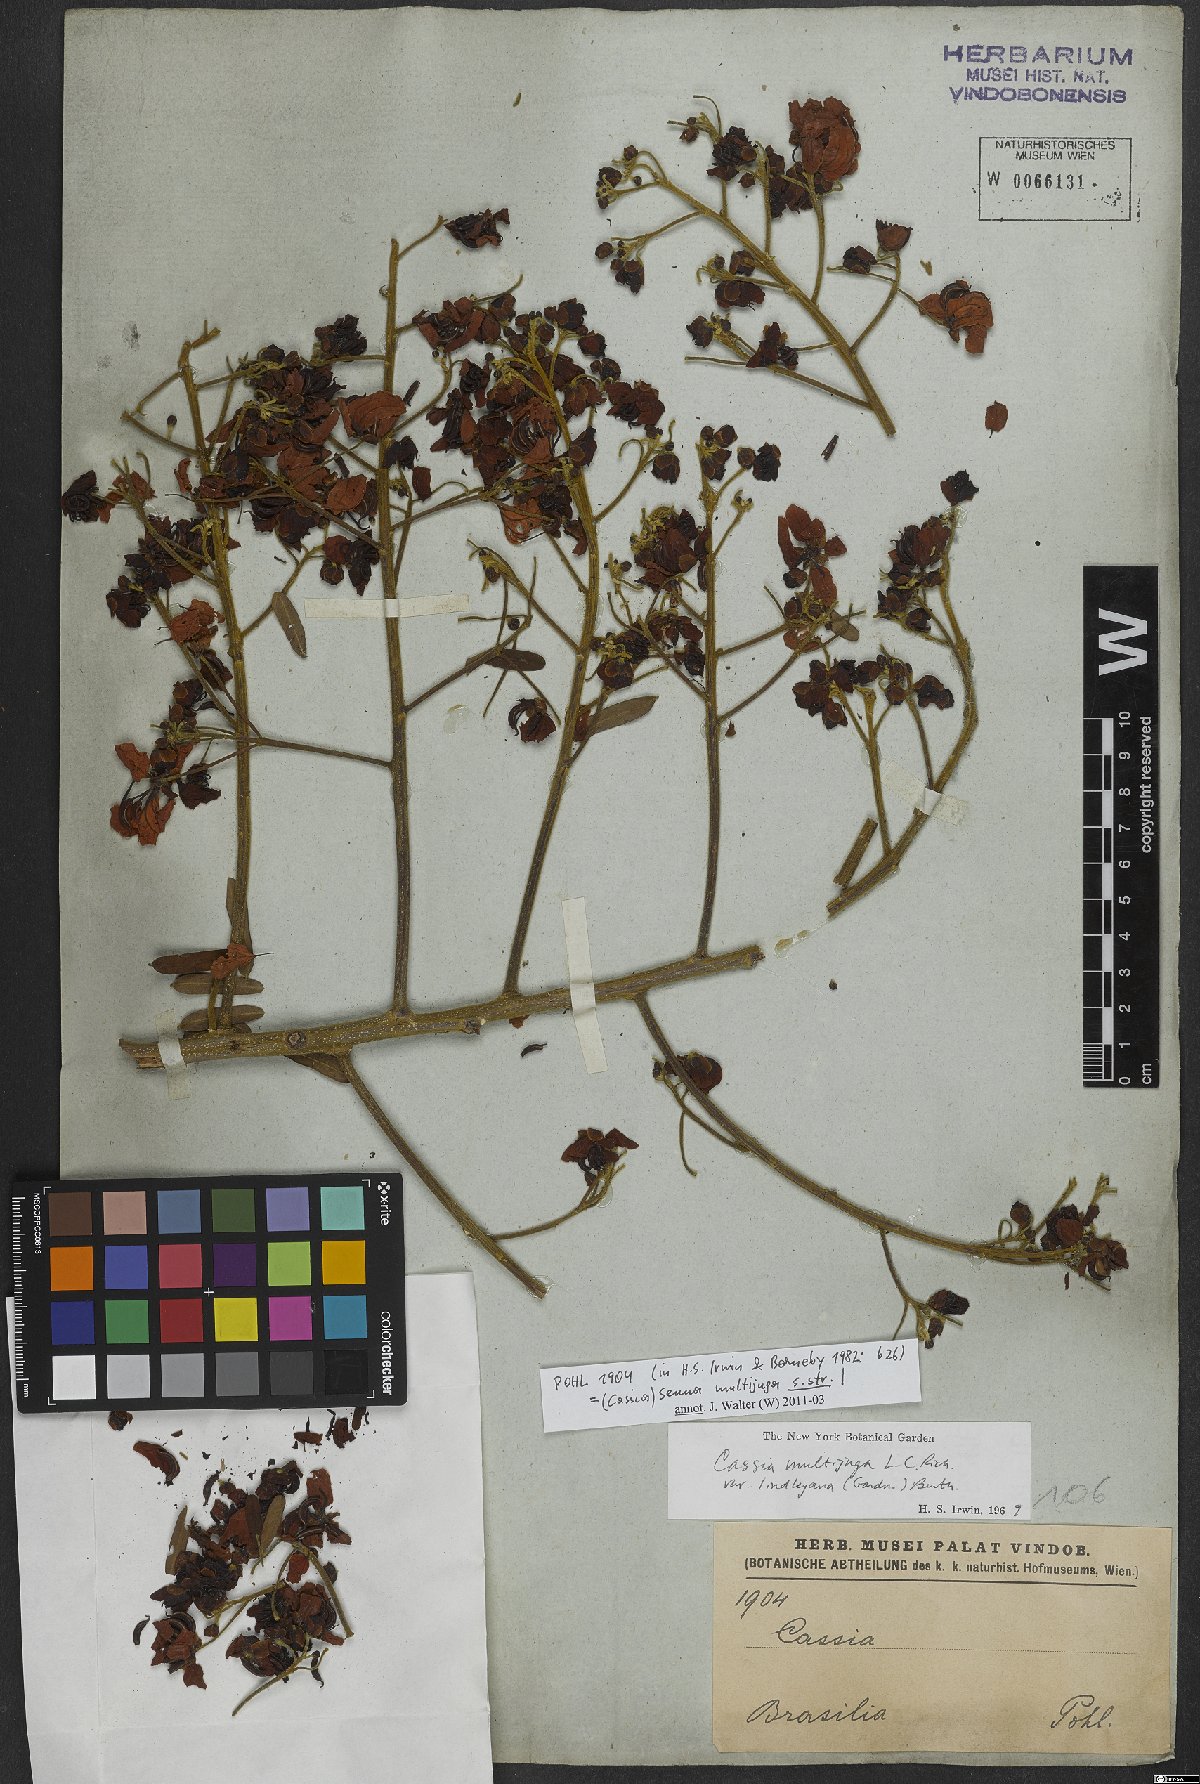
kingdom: Plantae
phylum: Tracheophyta
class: Magnoliopsida
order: Fabales
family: Fabaceae
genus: Senna
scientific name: Senna multijuga
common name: False sicklepod
